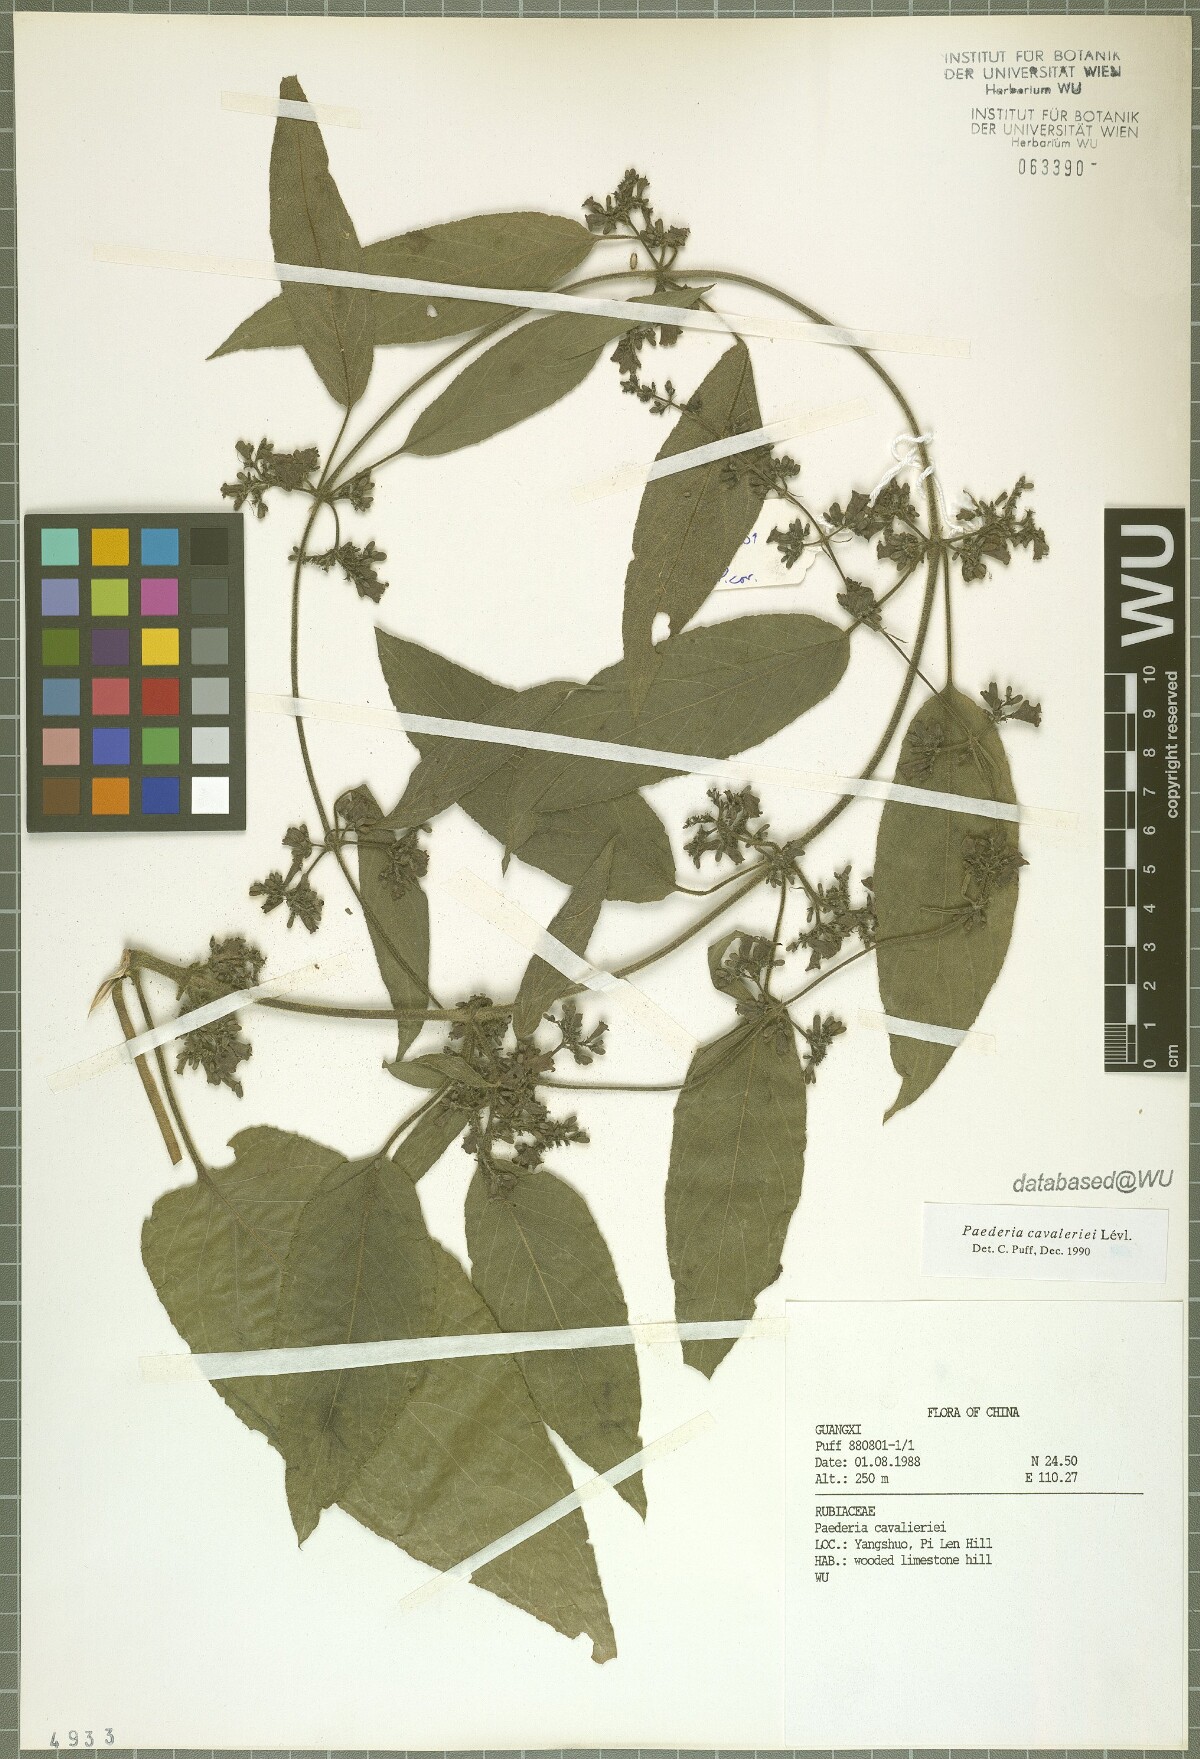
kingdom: Plantae
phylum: Tracheophyta
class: Magnoliopsida
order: Gentianales
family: Rubiaceae
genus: Paederia
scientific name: Paederia cavaleriei
